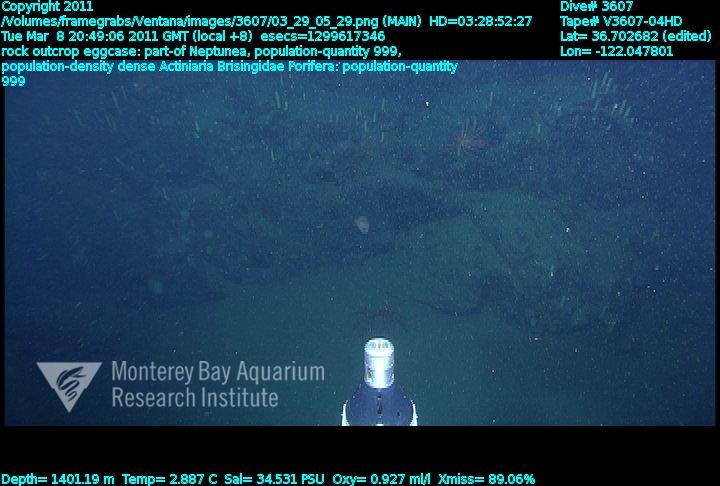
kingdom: Animalia
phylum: Porifera
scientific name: Porifera
